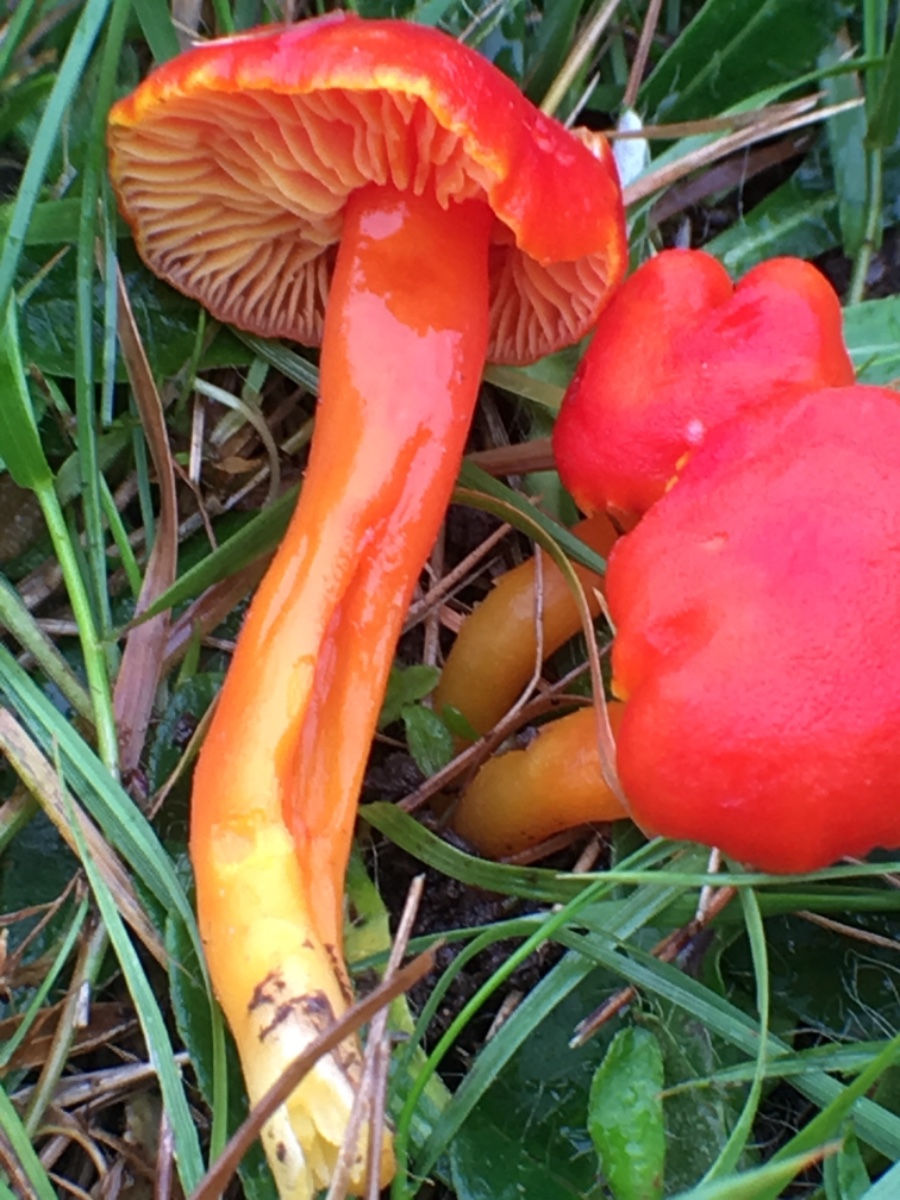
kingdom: Fungi
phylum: Basidiomycota
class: Agaricomycetes
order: Agaricales
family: Hygrophoraceae
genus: Hygrocybe
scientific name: Hygrocybe coccinea
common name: cinnober-vokshat
